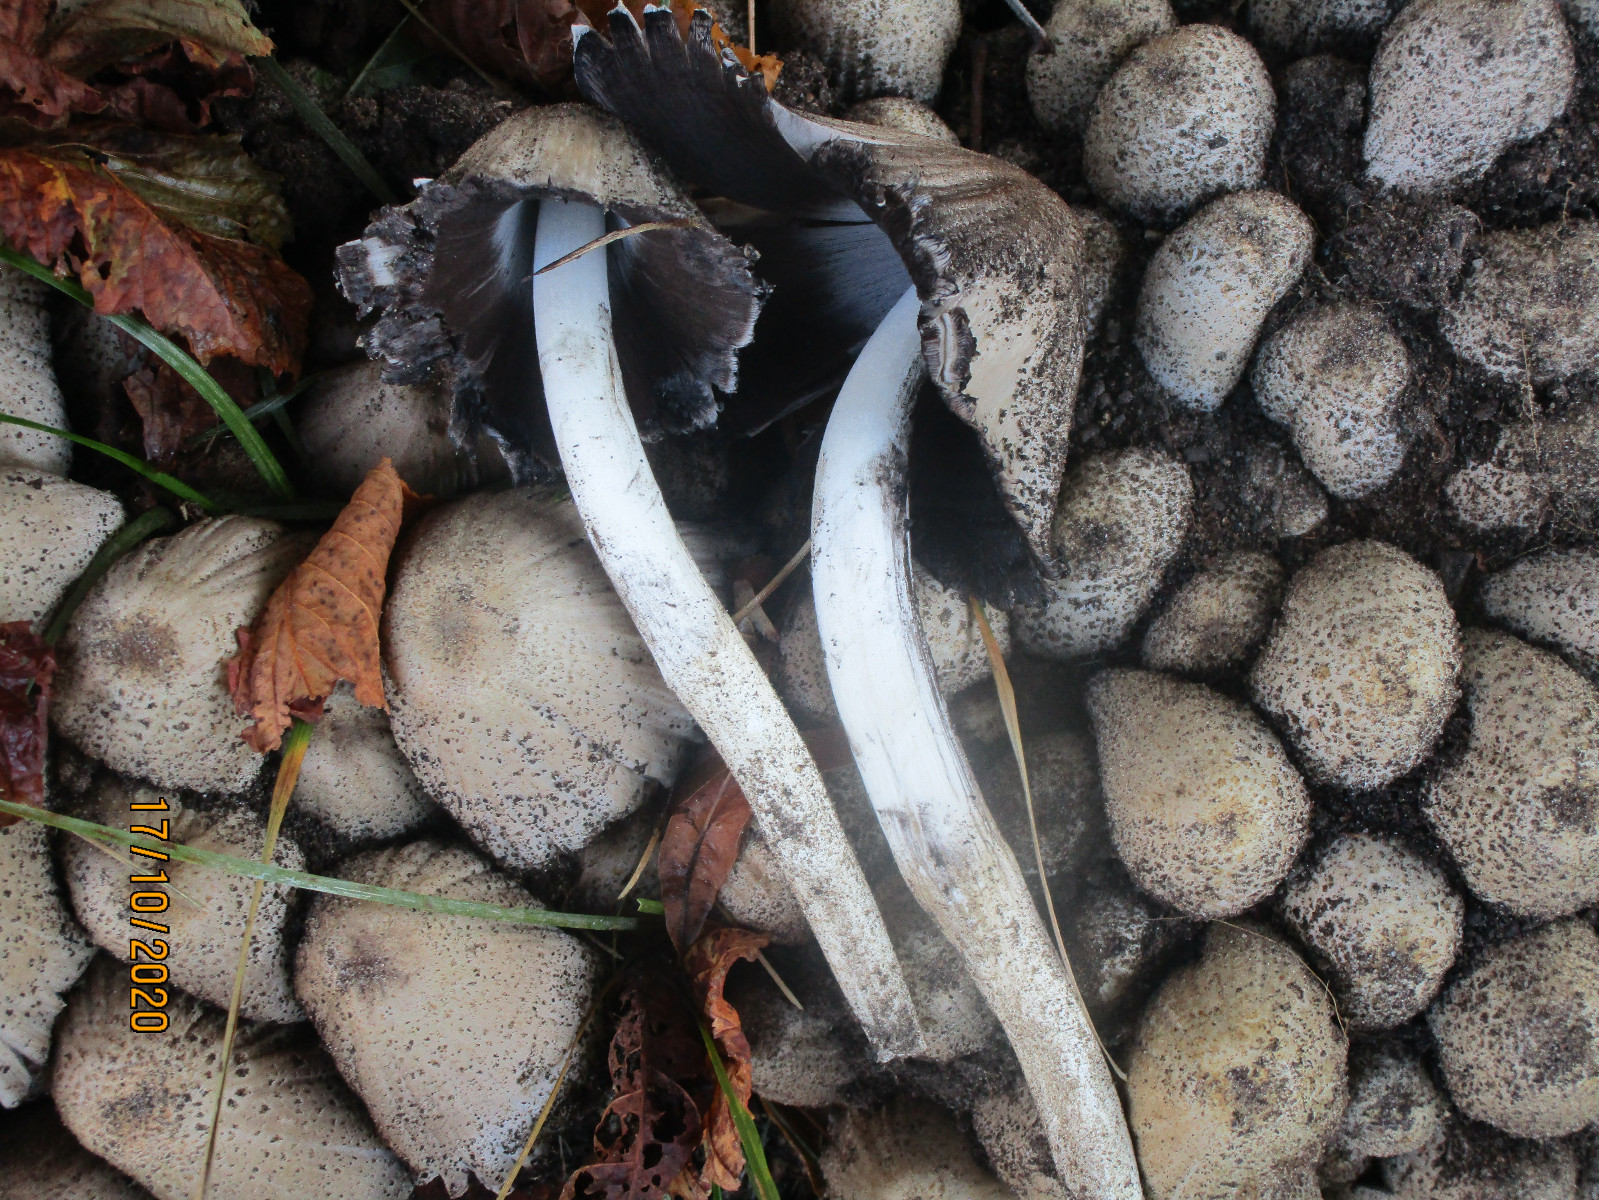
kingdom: Fungi
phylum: Basidiomycota
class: Agaricomycetes
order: Agaricales
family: Psathyrellaceae
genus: Coprinopsis
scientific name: Coprinopsis
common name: blækhat
